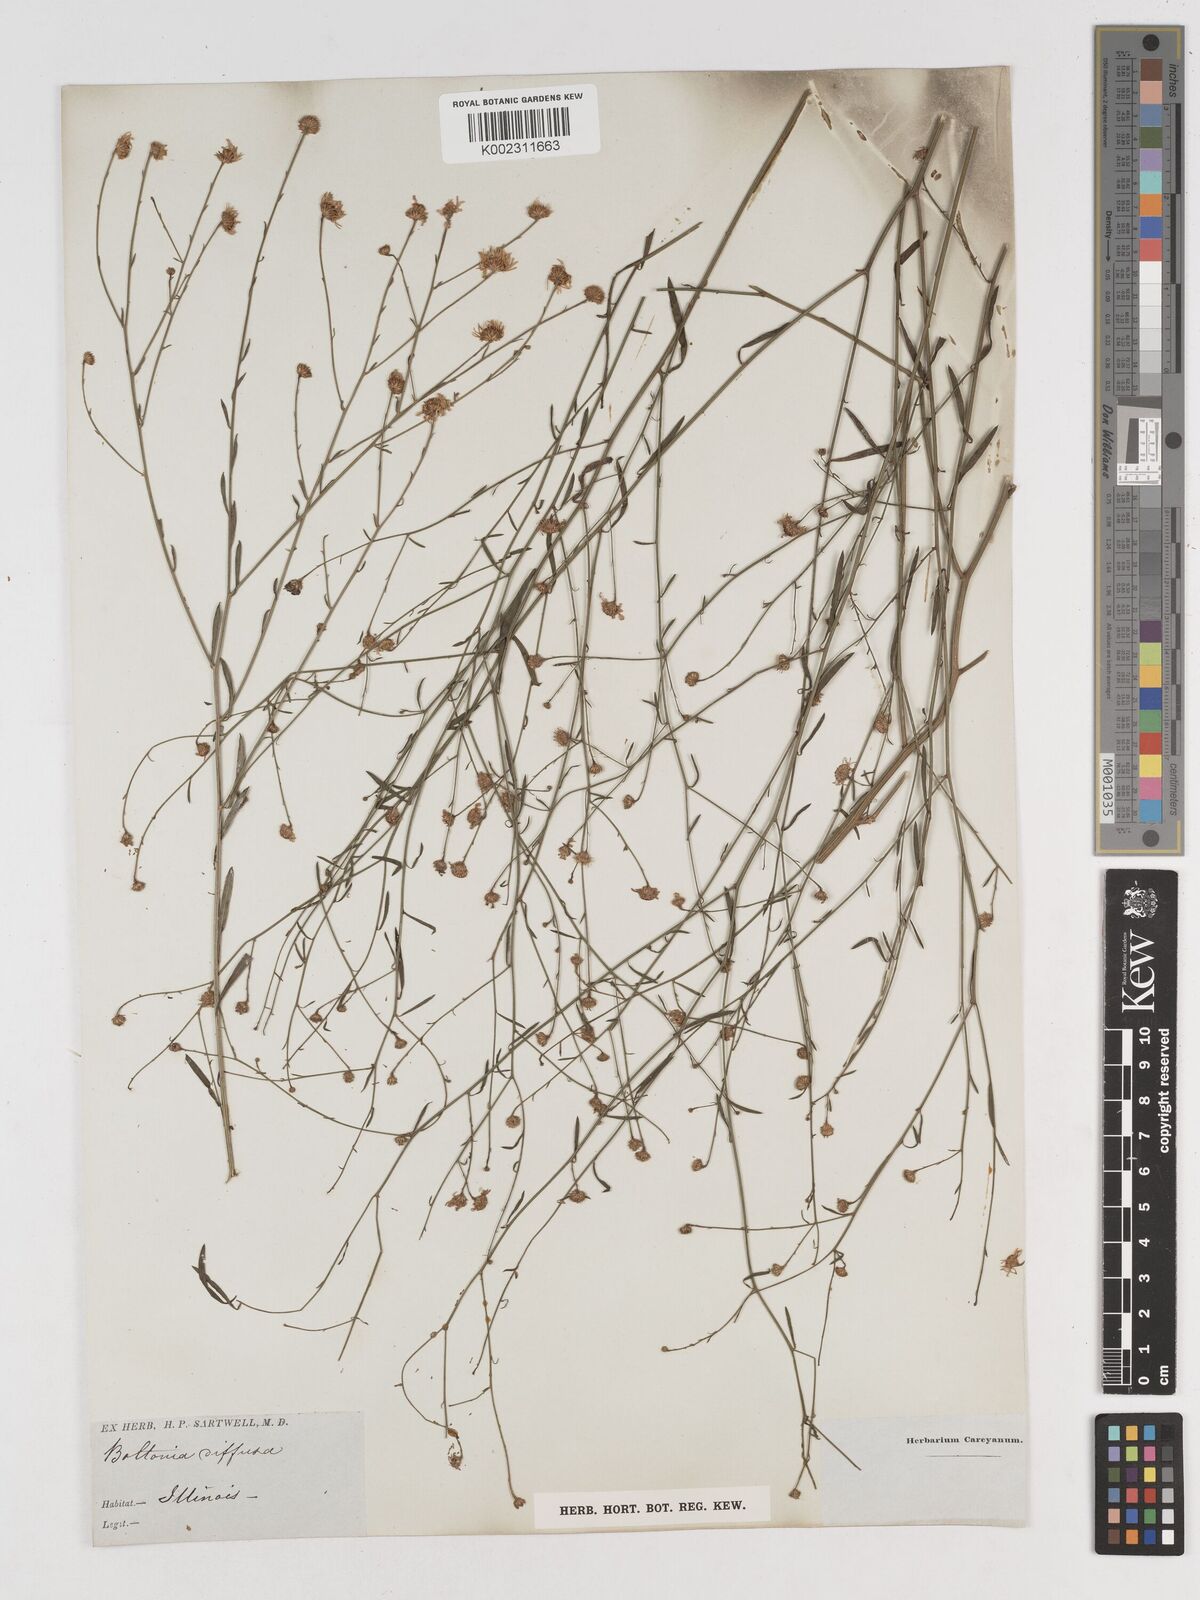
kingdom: Plantae
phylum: Tracheophyta
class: Magnoliopsida
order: Asterales
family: Asteraceae
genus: Boltonia
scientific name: Boltonia diffusa
